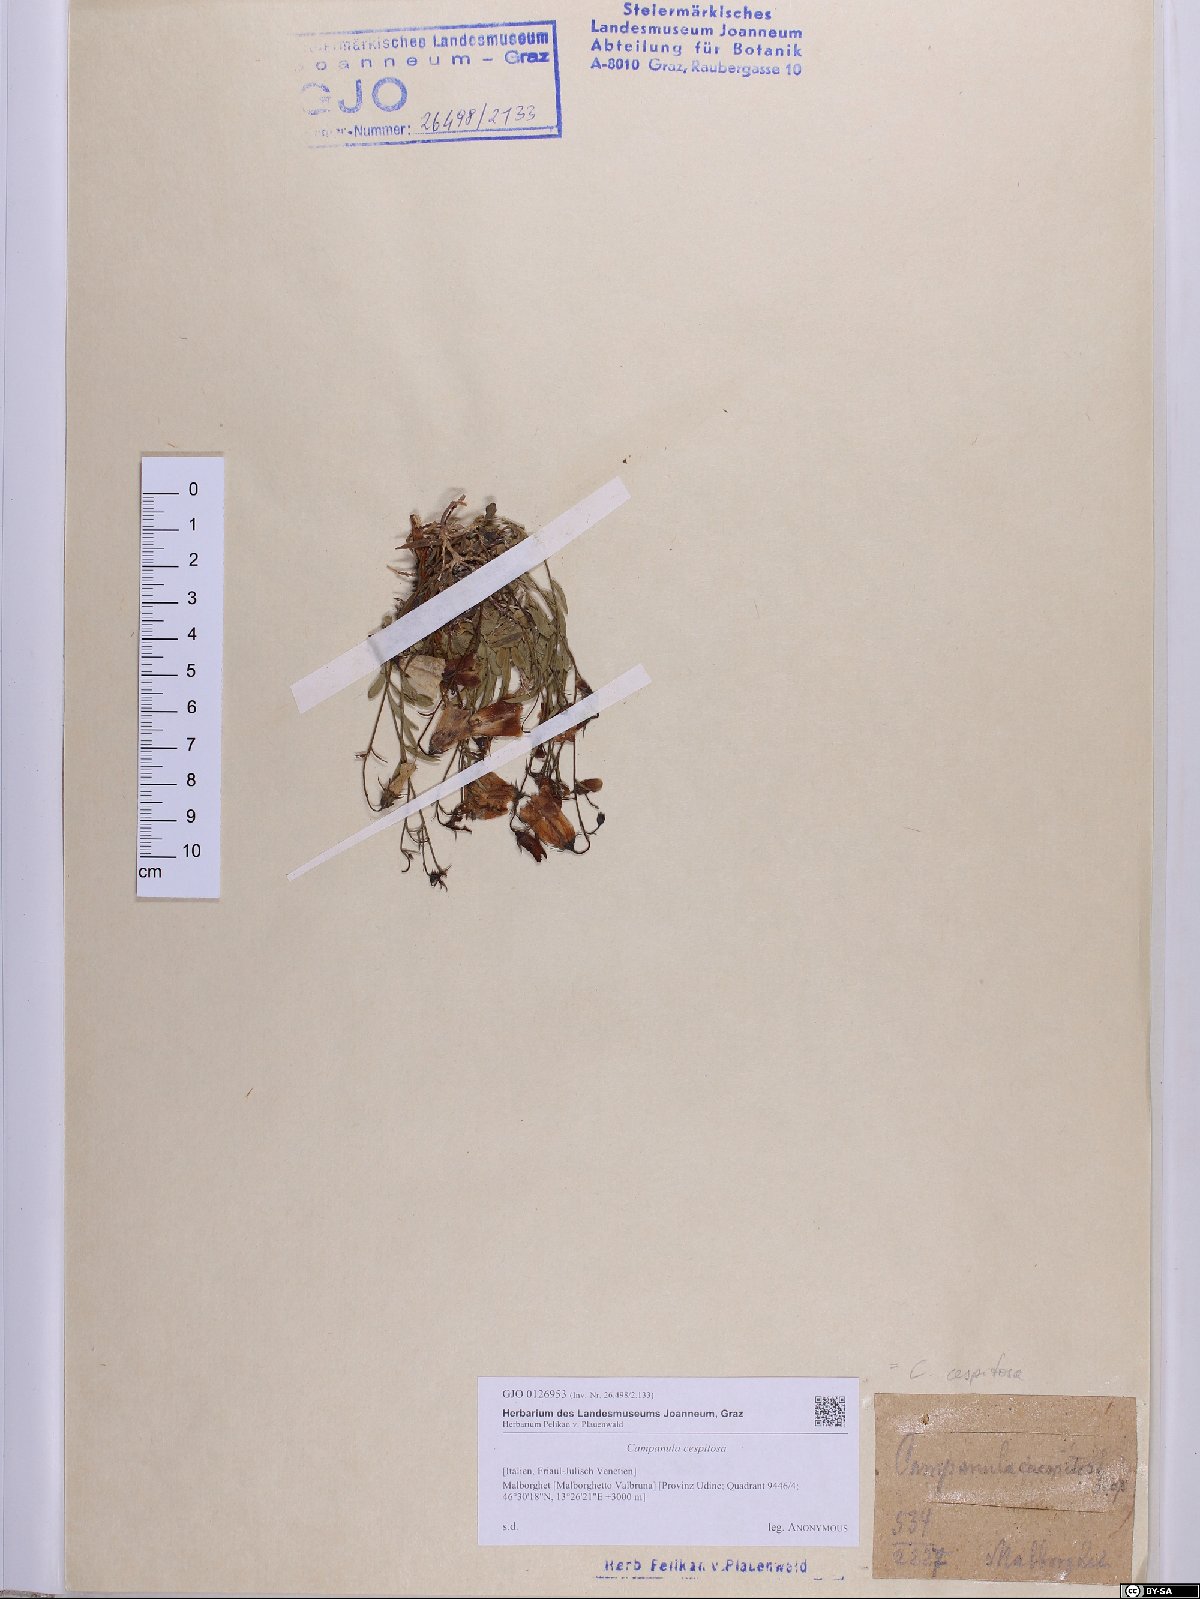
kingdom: Plantae
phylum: Tracheophyta
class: Magnoliopsida
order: Asterales
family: Campanulaceae
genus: Campanula
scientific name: Campanula cespitosa
